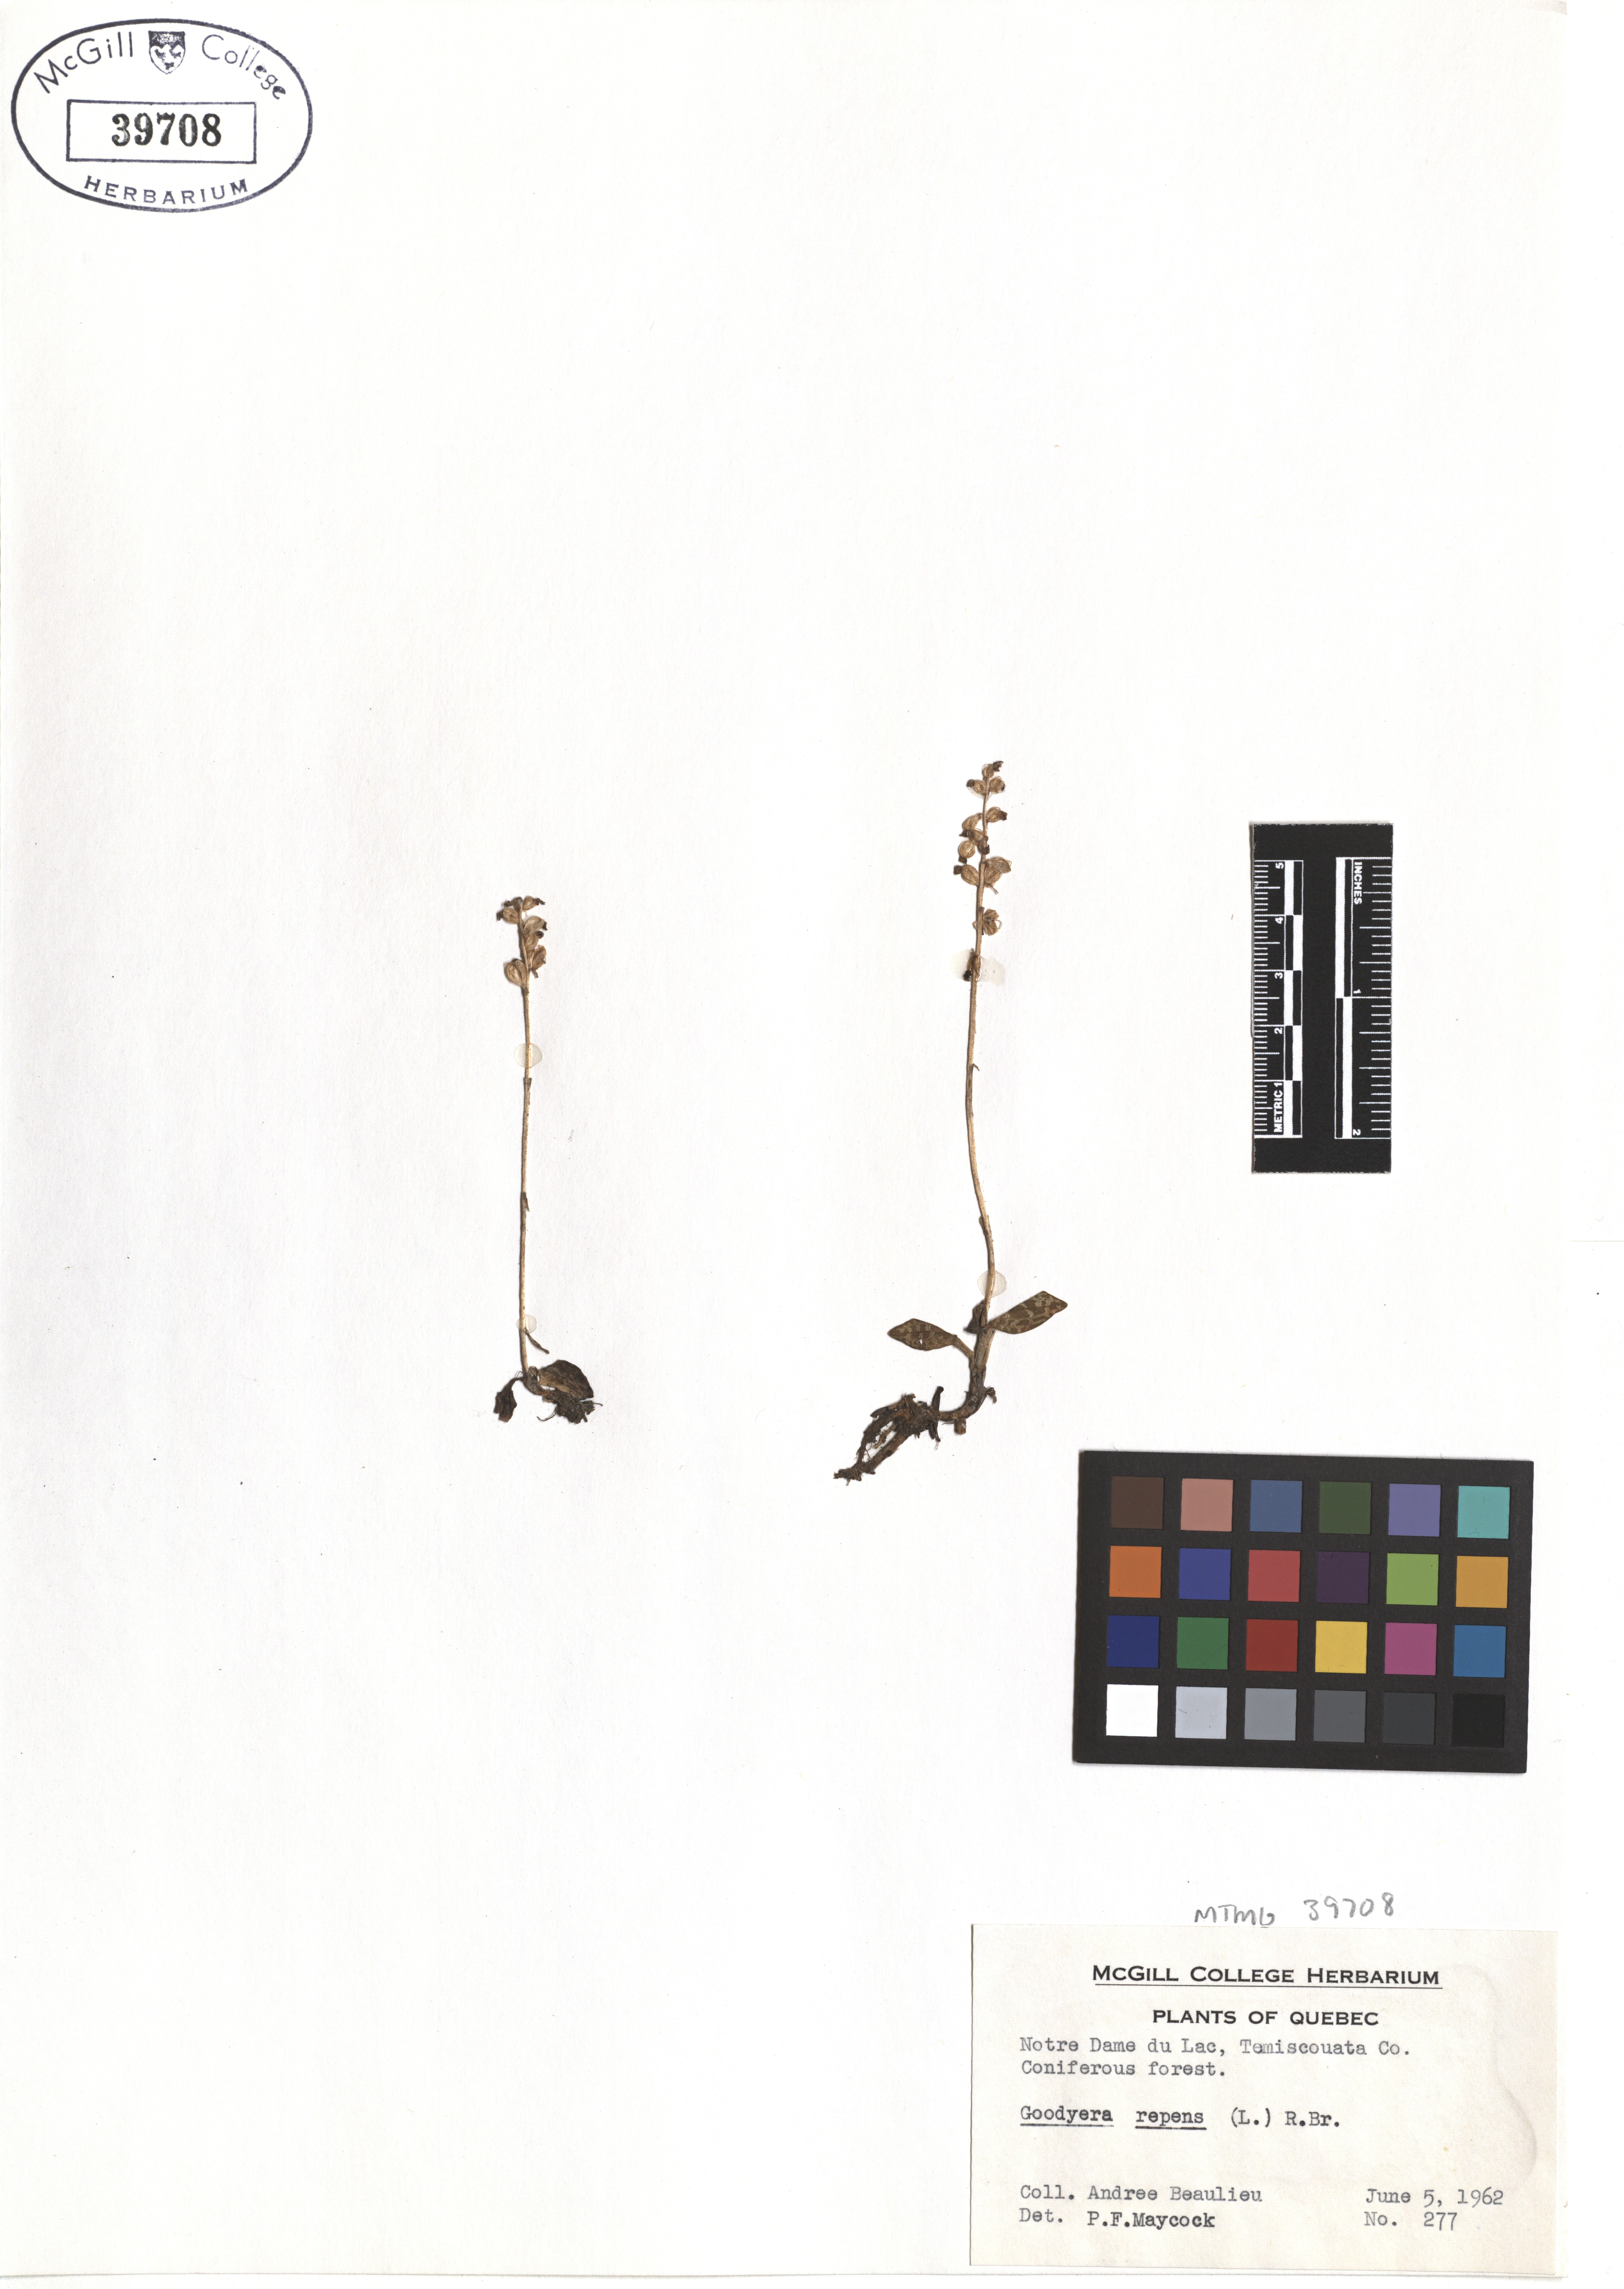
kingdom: Plantae
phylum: Tracheophyta
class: Liliopsida
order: Asparagales
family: Orchidaceae
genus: Goodyera
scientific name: Goodyera repens
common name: Creeping lady's-tresses
